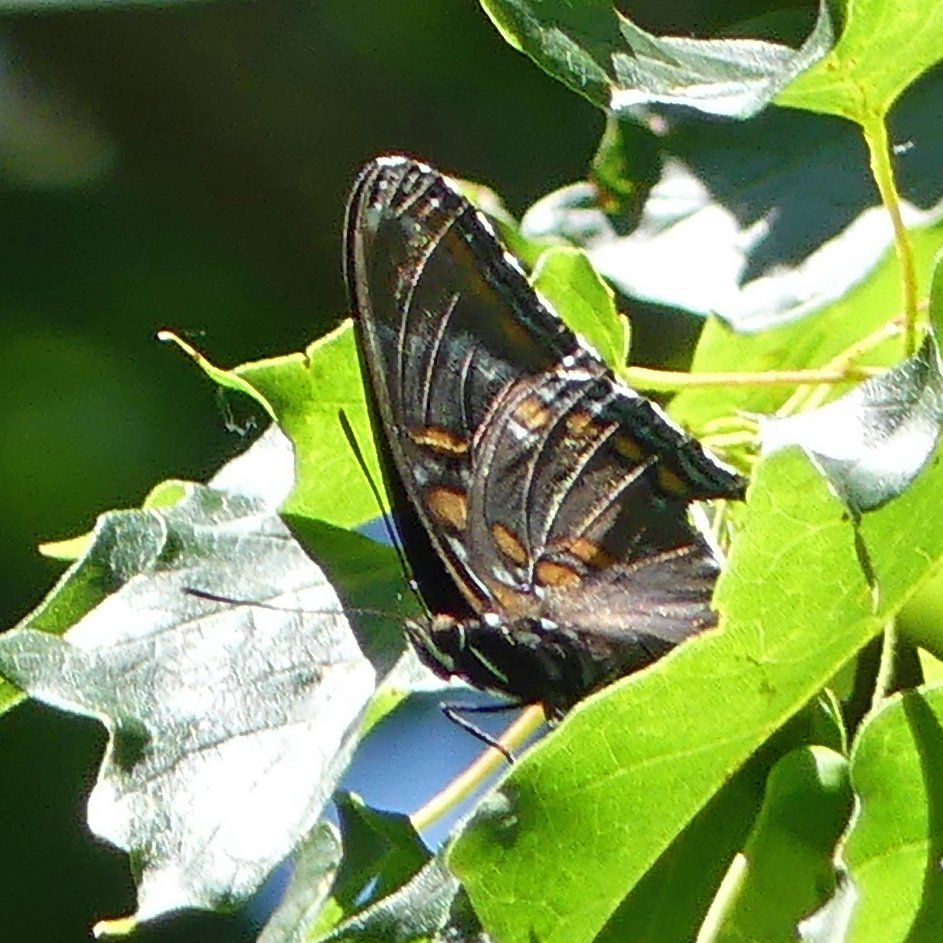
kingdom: Animalia
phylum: Arthropoda
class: Insecta
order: Lepidoptera
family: Nymphalidae
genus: Limenitis
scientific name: Limenitis astyanax
